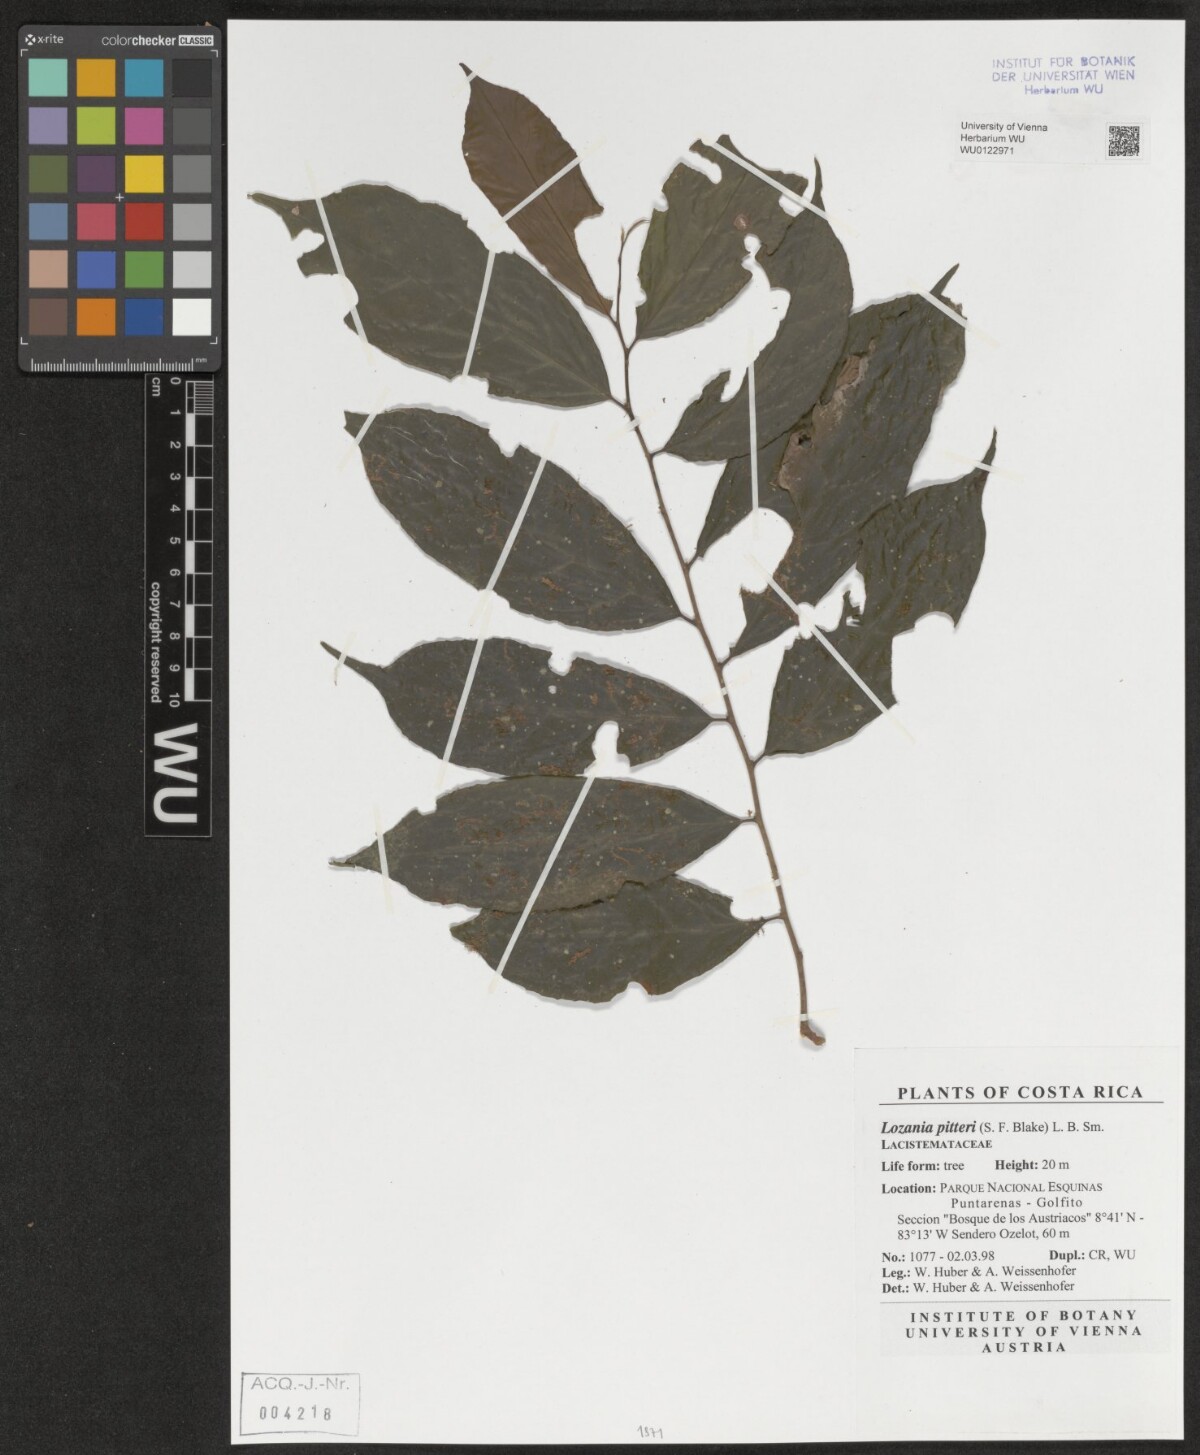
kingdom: Plantae
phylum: Tracheophyta
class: Magnoliopsida
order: Malpighiales
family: Lacistemataceae
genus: Lozania
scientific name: Lozania pittieri
